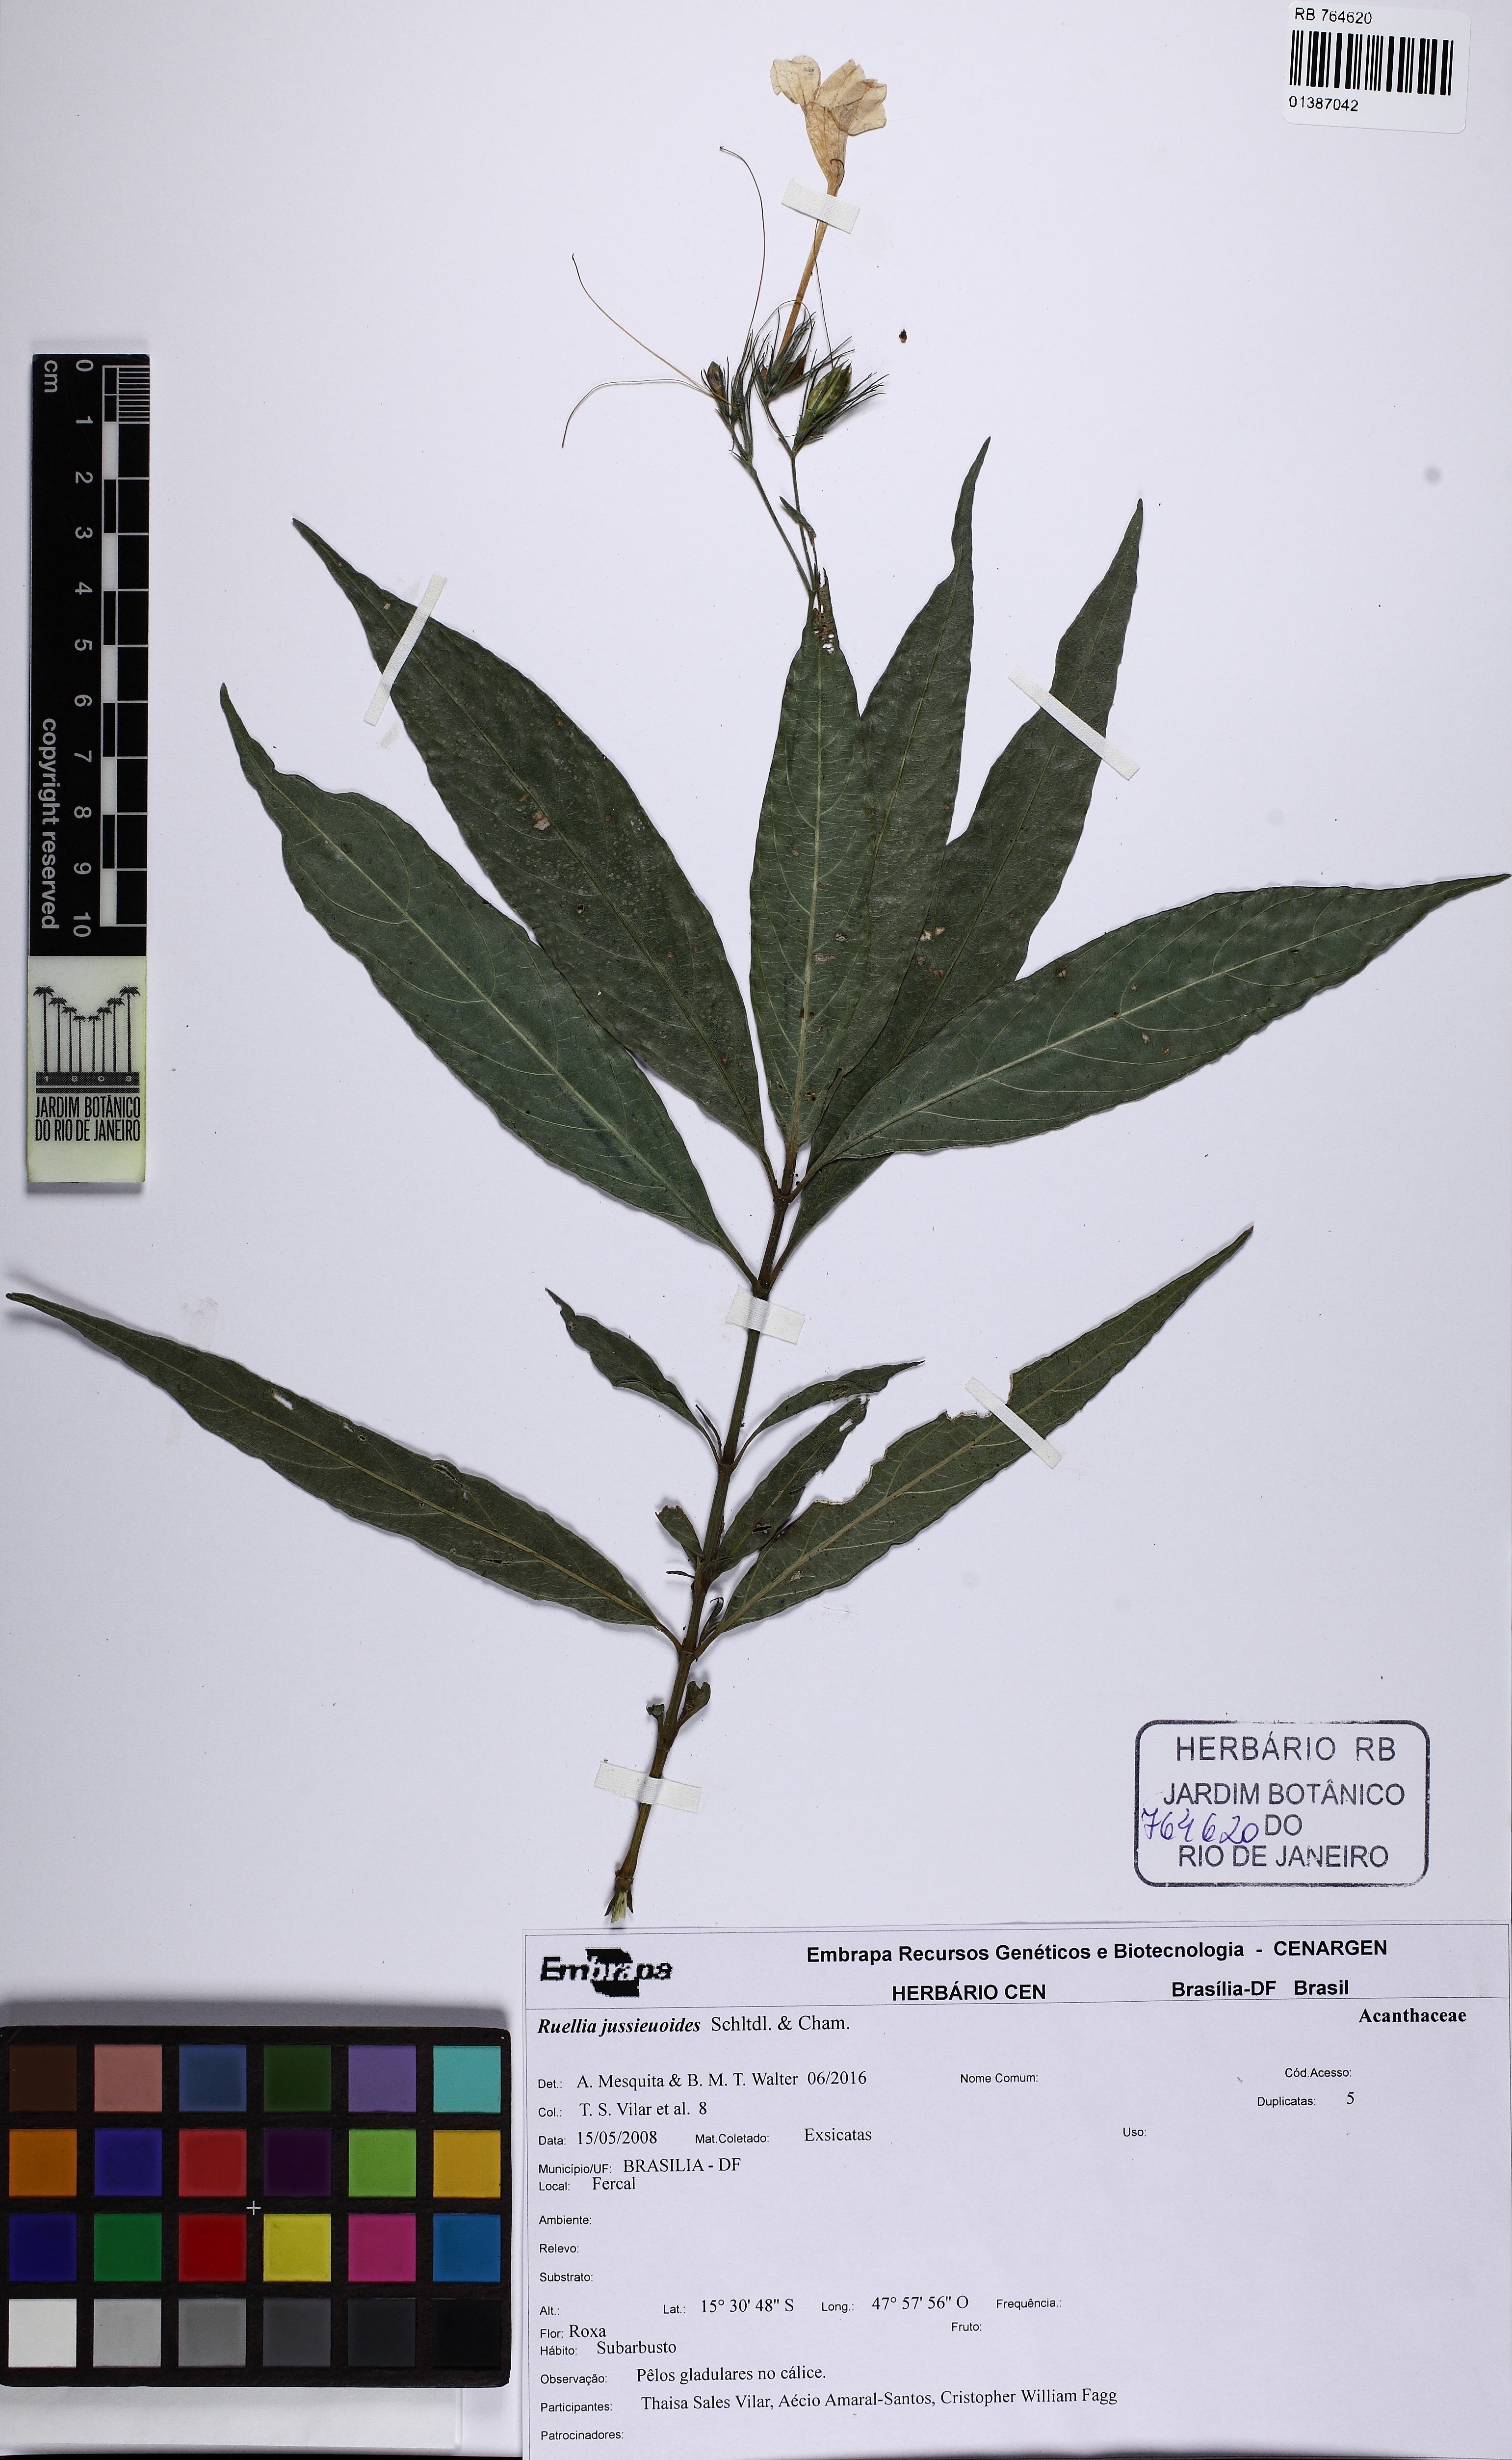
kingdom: Plantae
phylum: Tracheophyta
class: Magnoliopsida
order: Lamiales
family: Acanthaceae
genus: Ruellia
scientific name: Ruellia jussieuoides
